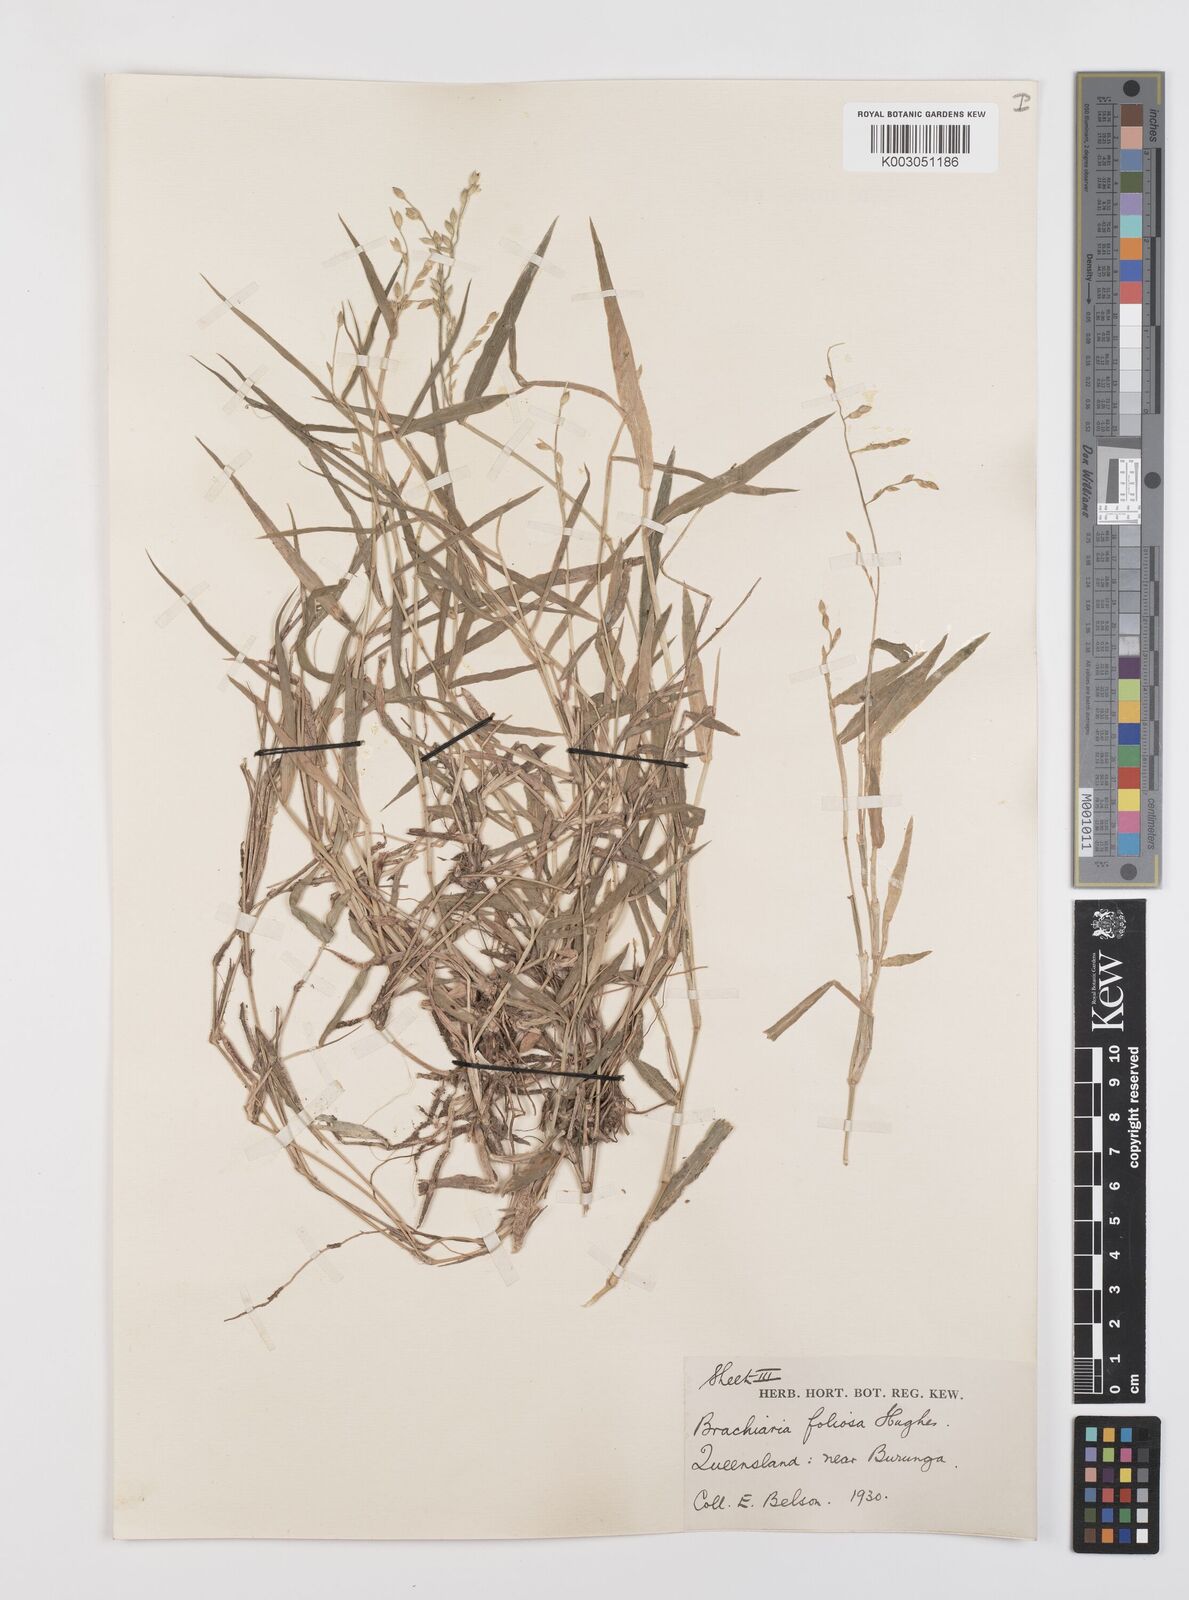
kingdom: Plantae
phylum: Tracheophyta
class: Liliopsida
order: Poales
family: Poaceae
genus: Urochloa
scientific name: Urochloa foliosa
